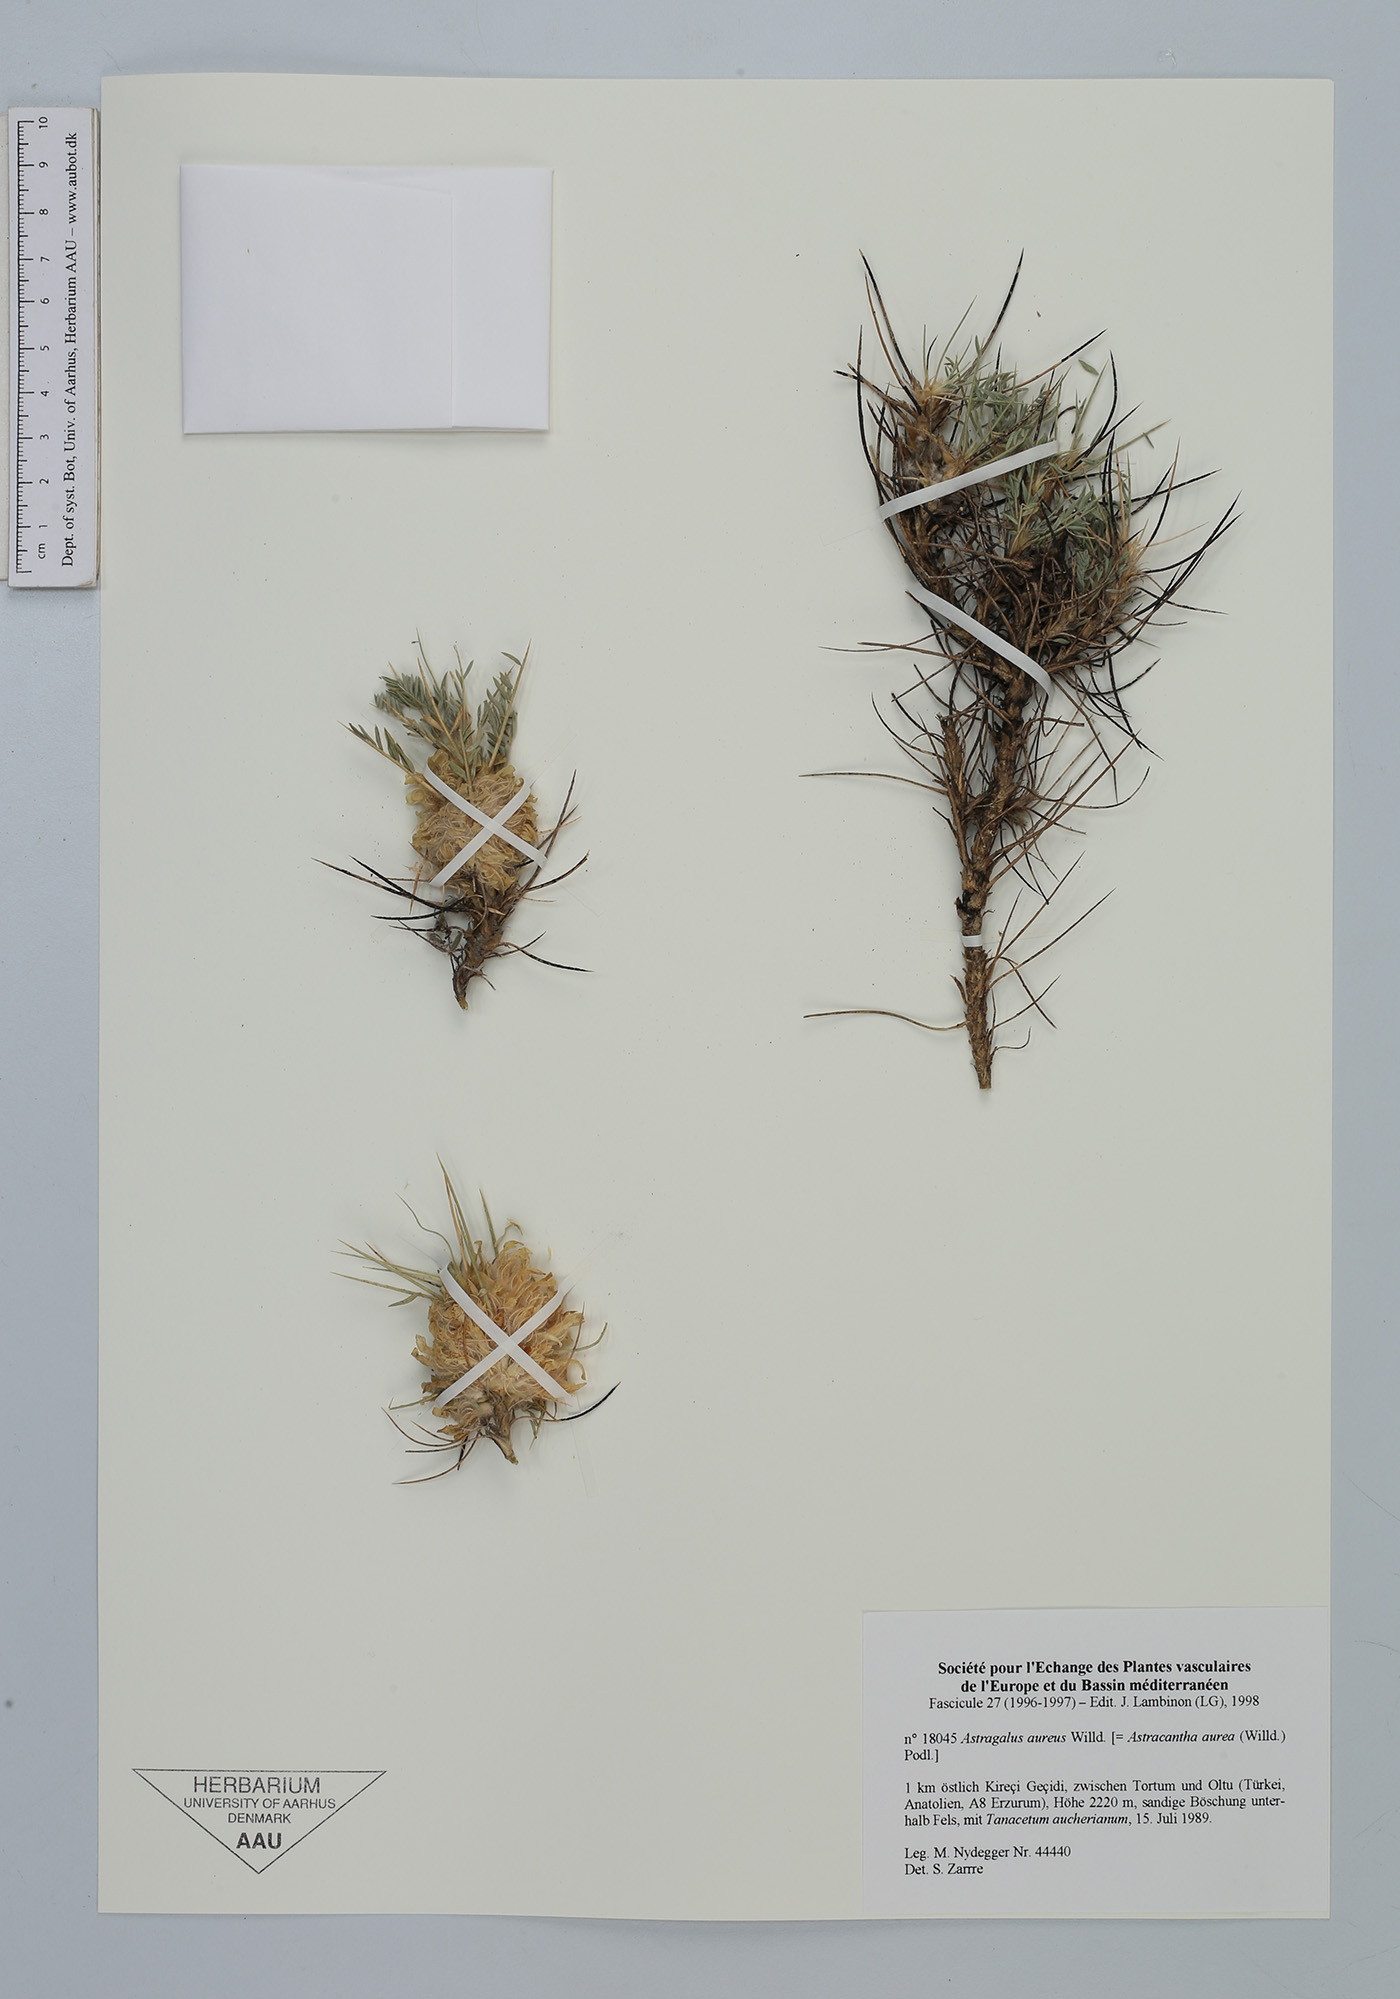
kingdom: Plantae
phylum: Tracheophyta
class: Magnoliopsida
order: Fabales
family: Fabaceae
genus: Astragalus
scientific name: Astragalus aureus
